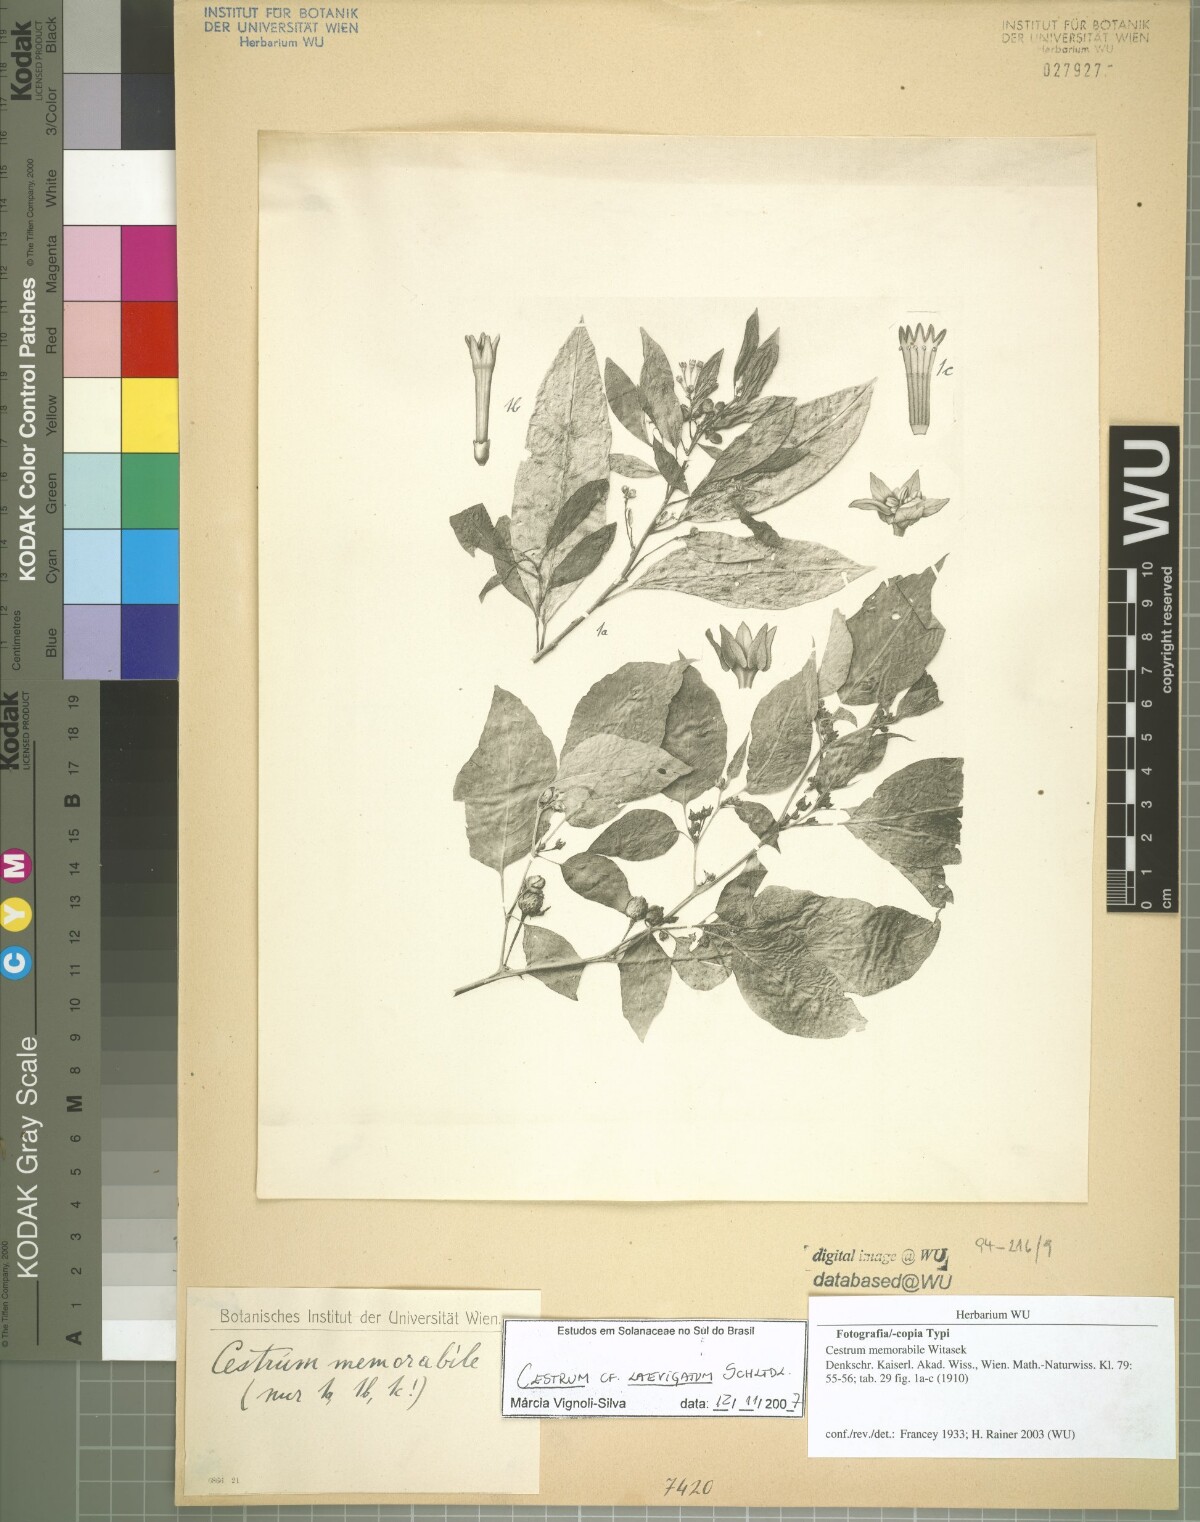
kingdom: Plantae
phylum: Tracheophyta
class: Magnoliopsida
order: Solanales
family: Solanaceae
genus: Cestrum
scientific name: Cestrum laevigatum
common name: Inkberry
